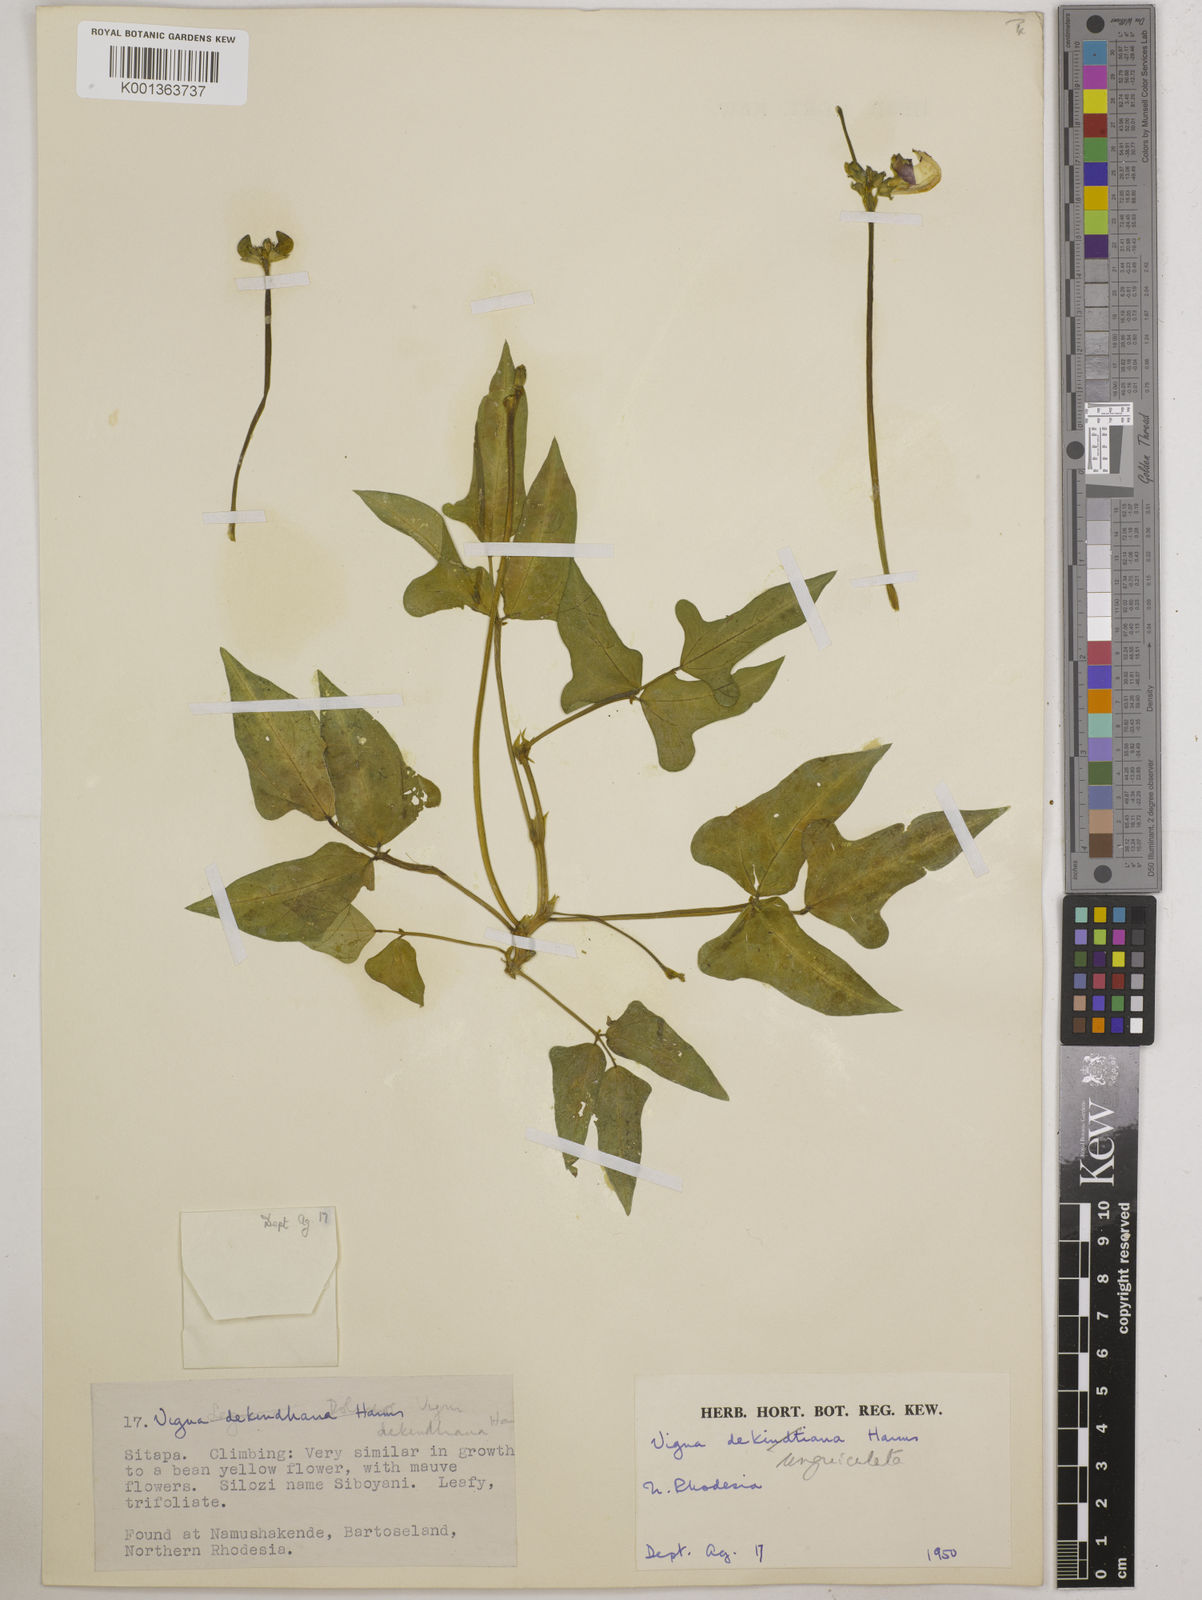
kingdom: Plantae
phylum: Tracheophyta
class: Magnoliopsida
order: Fabales
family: Fabaceae
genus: Vigna
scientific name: Vigna unguiculata
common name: Cowpea
